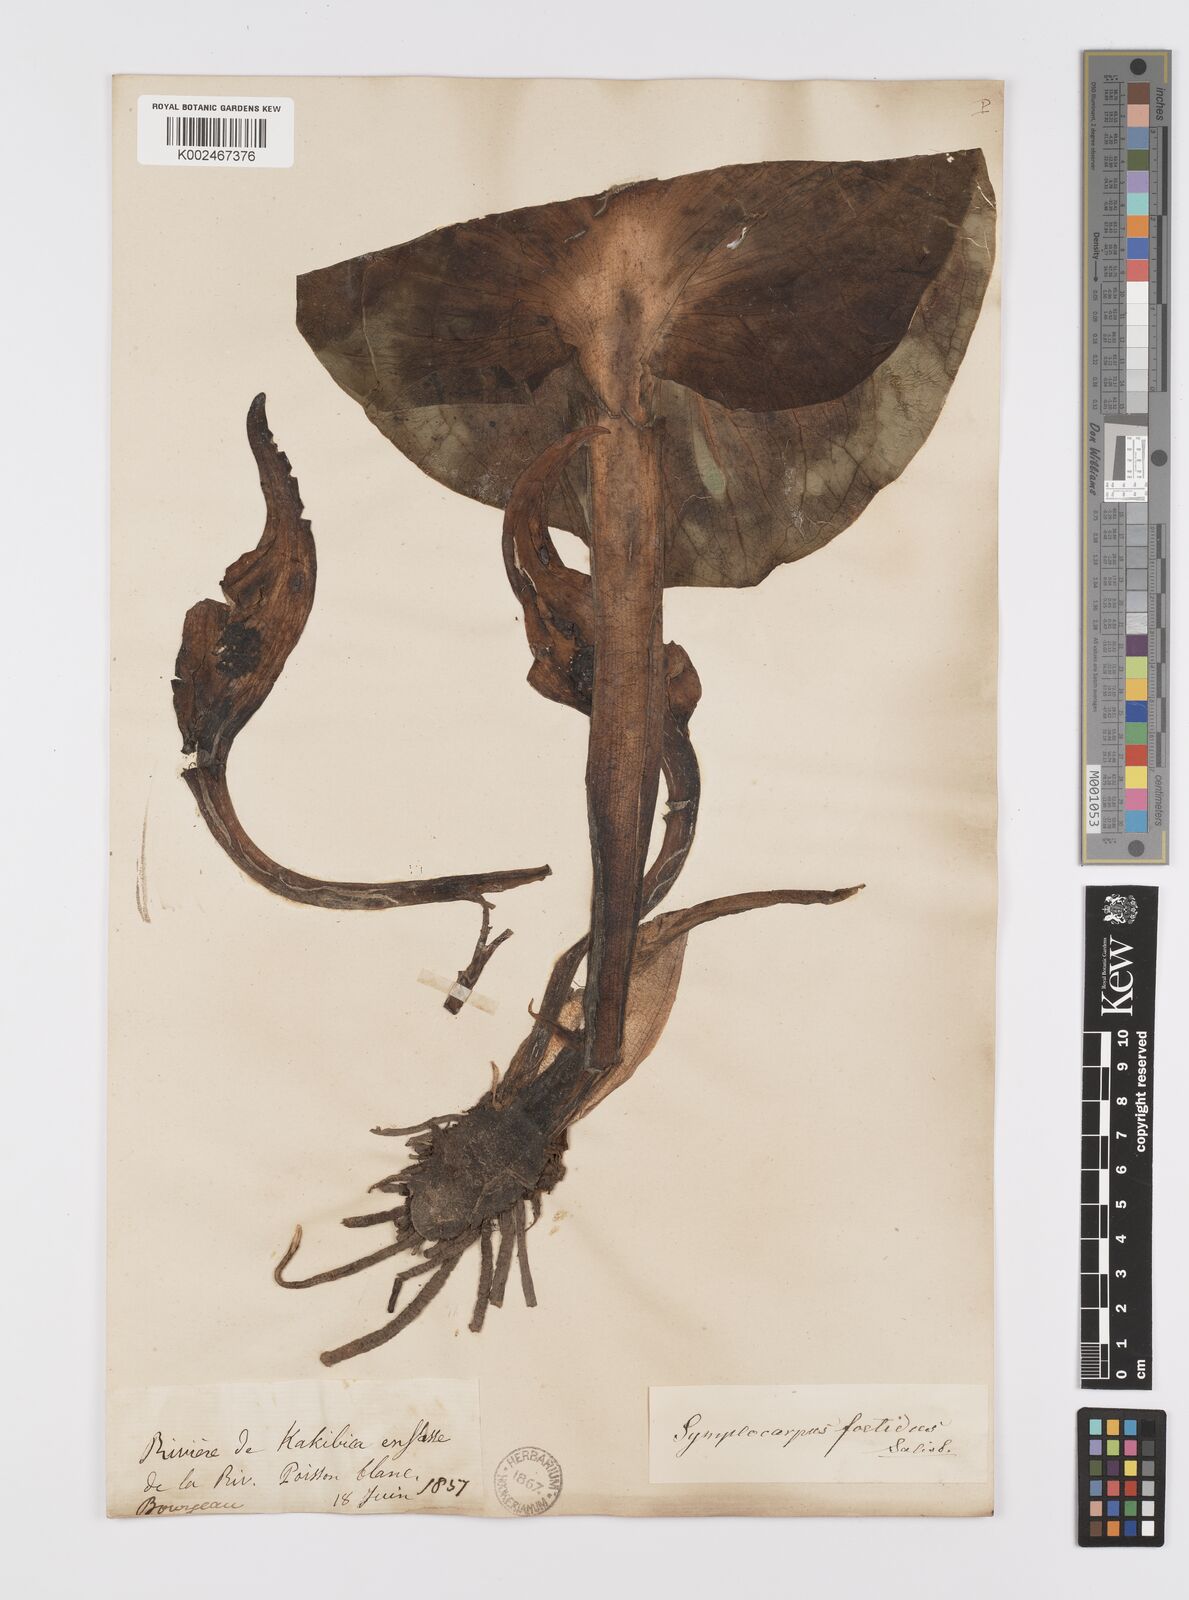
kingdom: Plantae
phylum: Tracheophyta
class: Liliopsida
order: Alismatales
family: Araceae
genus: Symplocarpus
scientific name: Symplocarpus foetidus
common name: Eastern skunk cabbage
